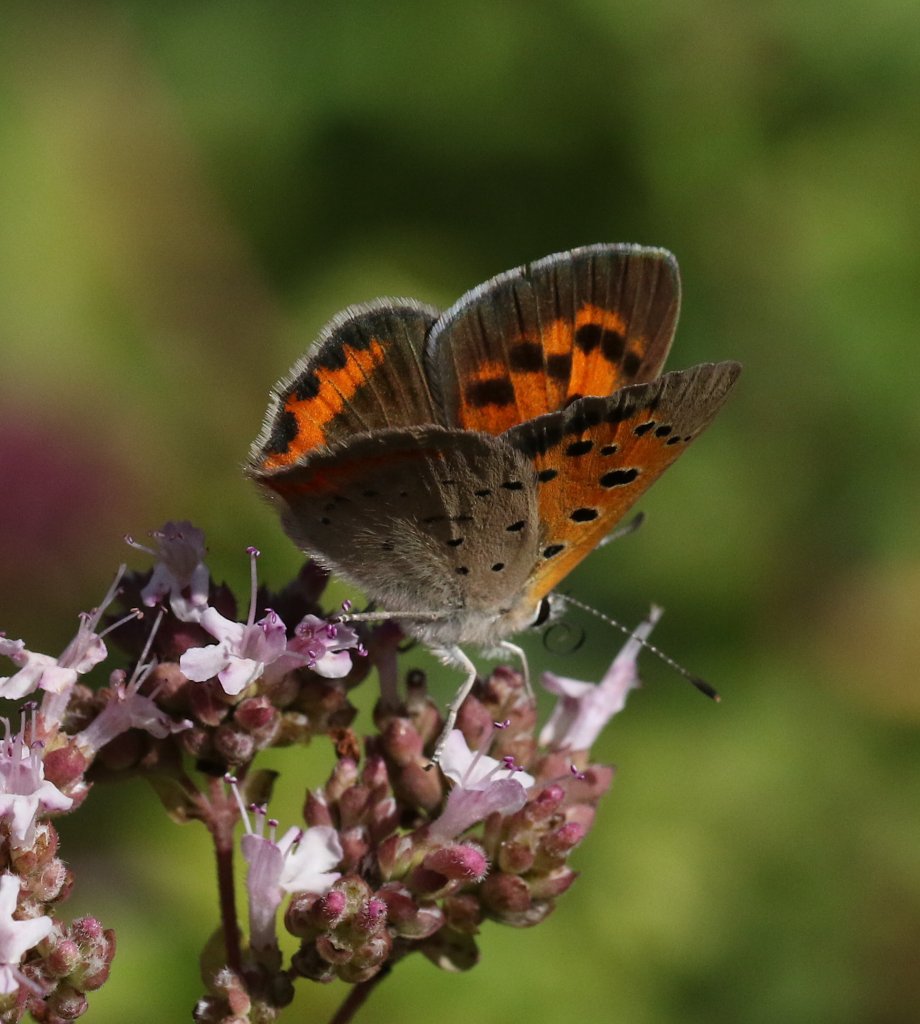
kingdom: Animalia
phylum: Arthropoda
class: Insecta
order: Lepidoptera
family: Lycaenidae
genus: Lycaena
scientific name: Lycaena phlaeas
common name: American Copper
